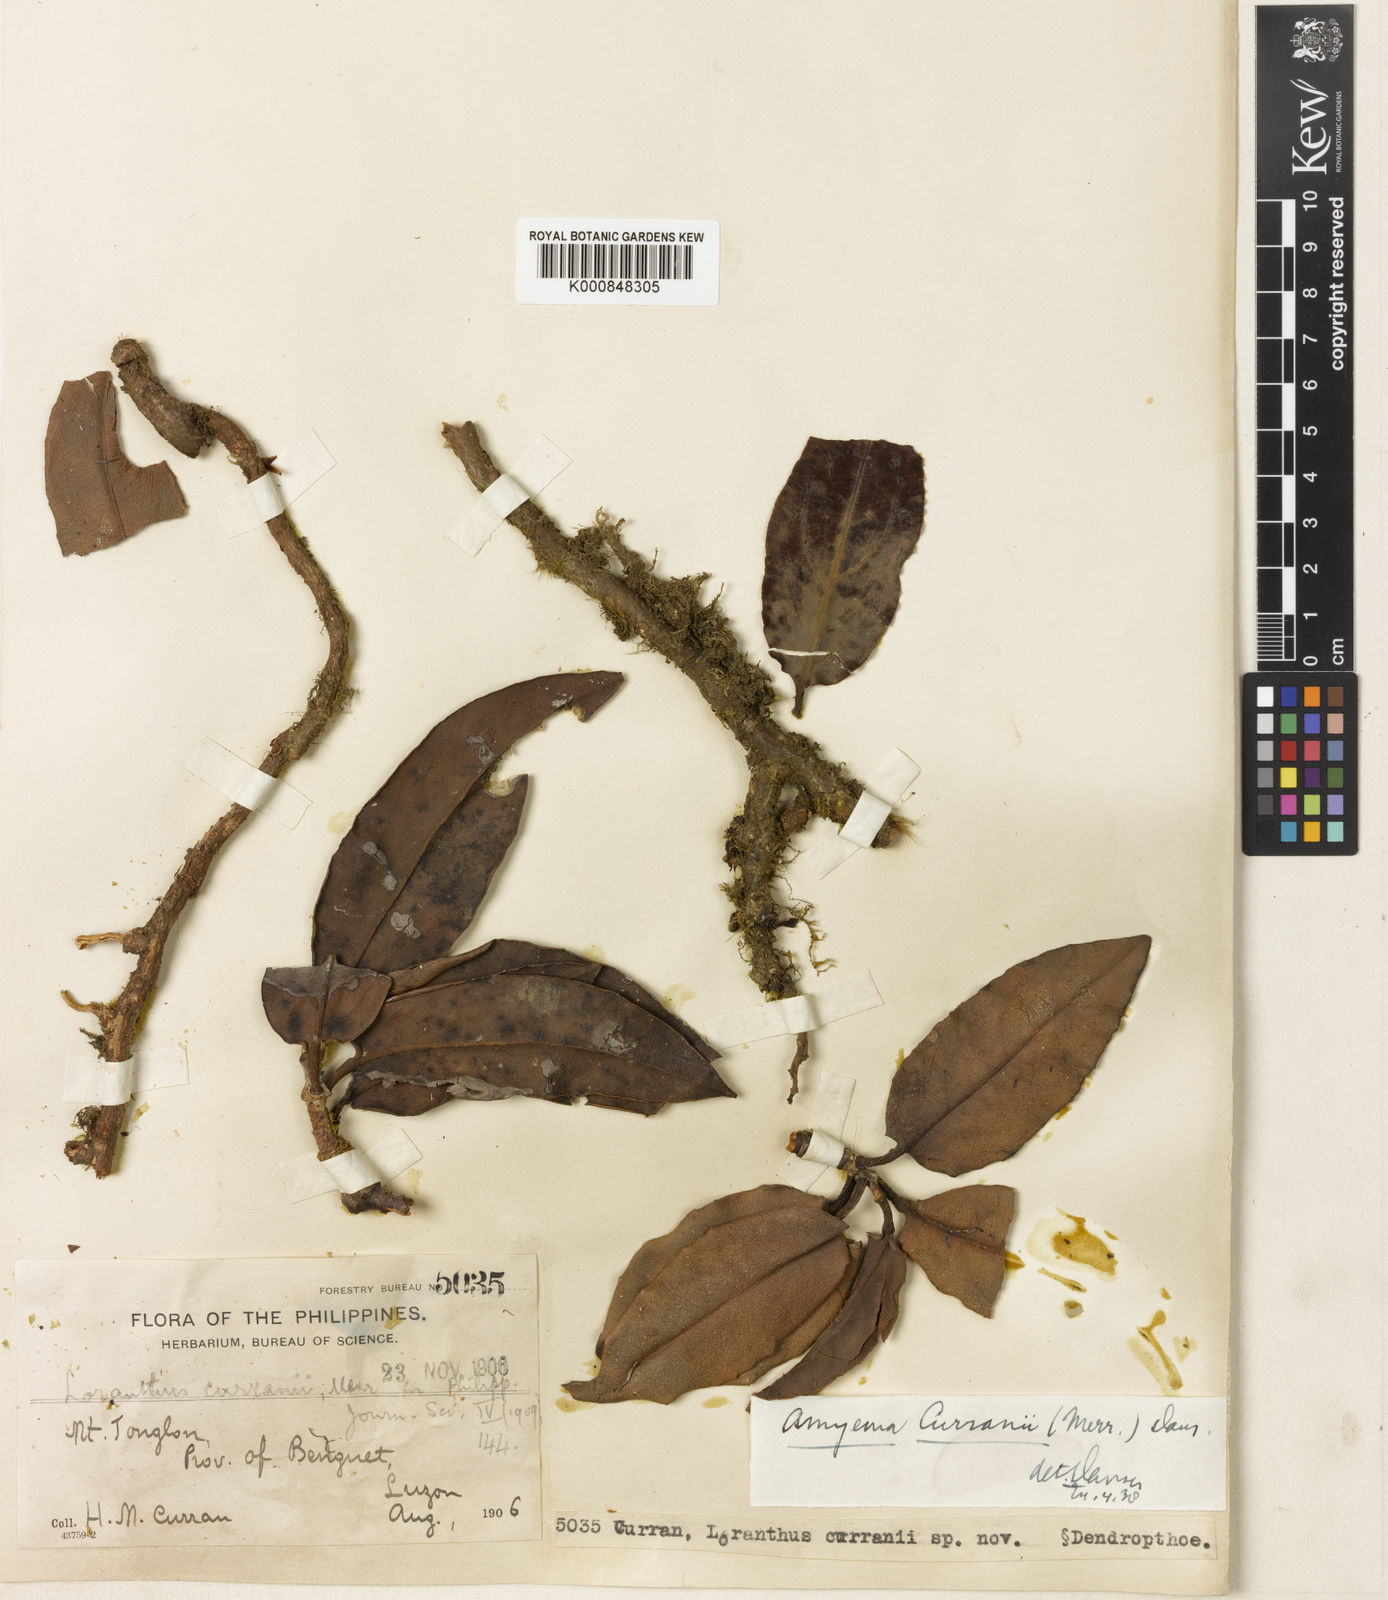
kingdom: Plantae
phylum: Tracheophyta
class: Magnoliopsida
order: Santalales
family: Loranthaceae
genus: Amyema
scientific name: Amyema curranii
